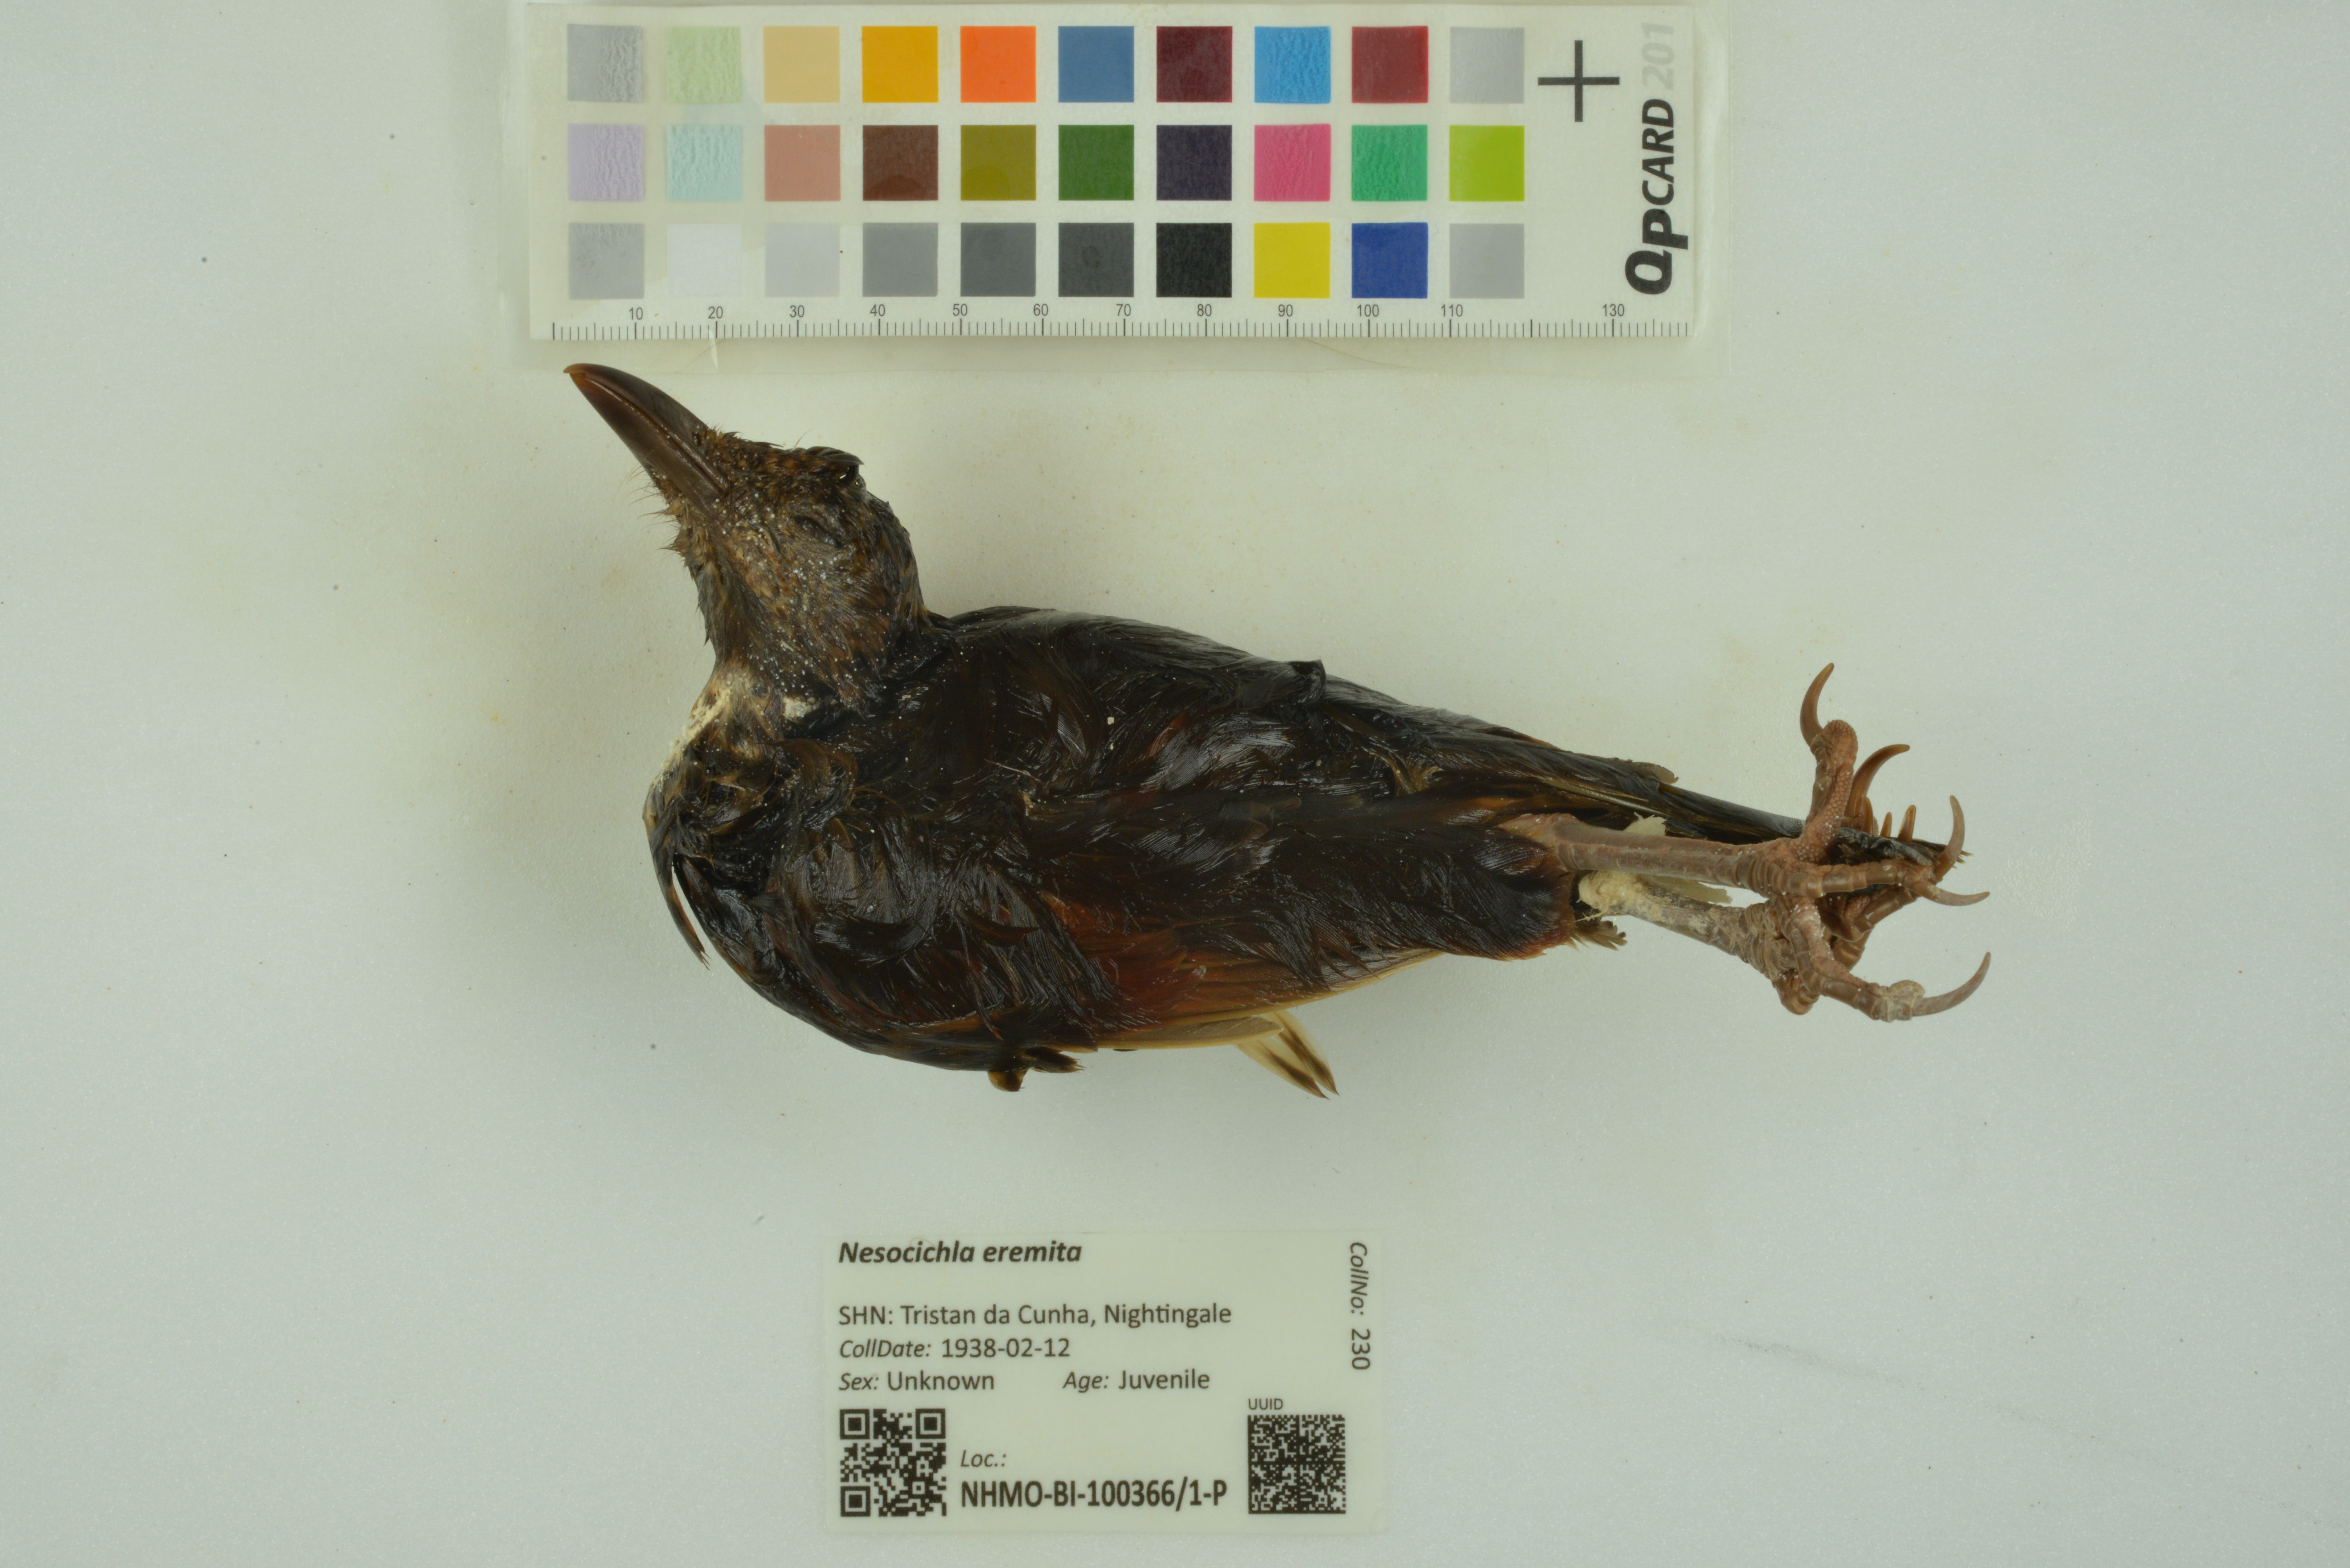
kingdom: Animalia
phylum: Chordata
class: Aves
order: Passeriformes
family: Turdidae
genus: Nesocichla
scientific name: Nesocichla eremita
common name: Tristan thrush
